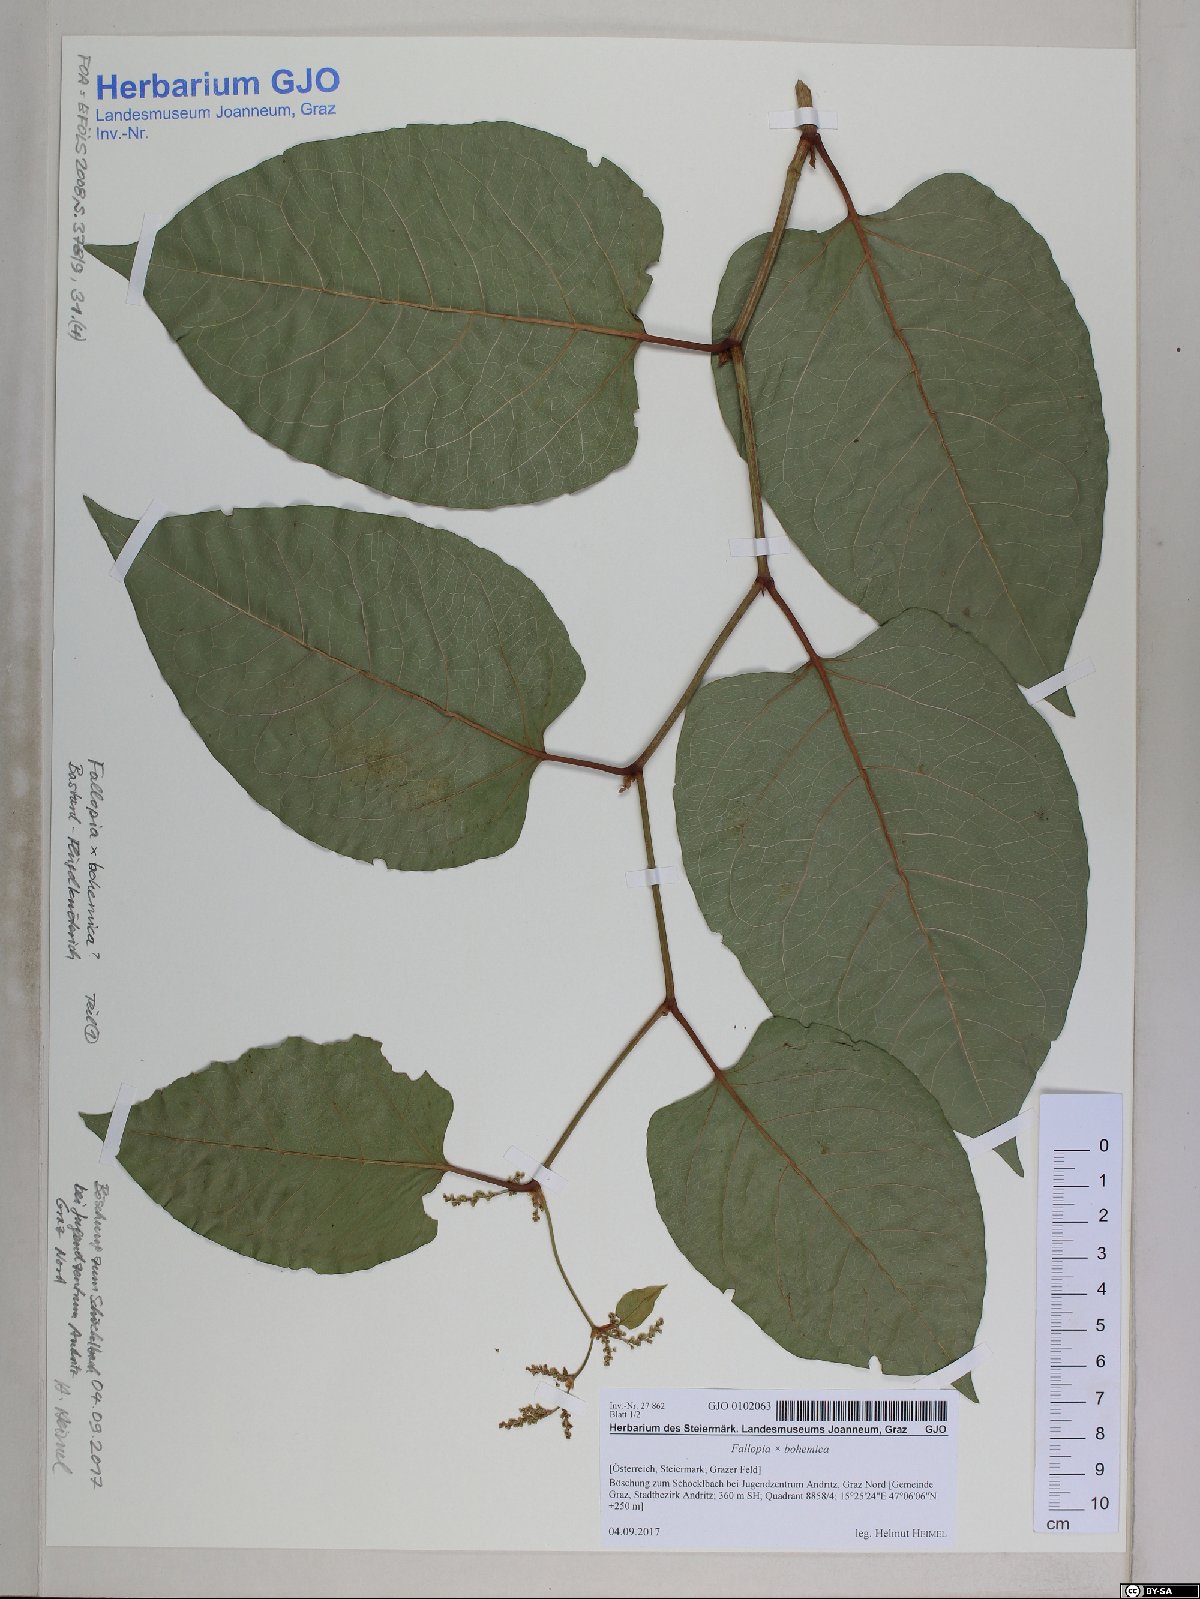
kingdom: Plantae
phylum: Tracheophyta
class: Magnoliopsida
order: Caryophyllales
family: Polygonaceae
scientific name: Polygonaceae
